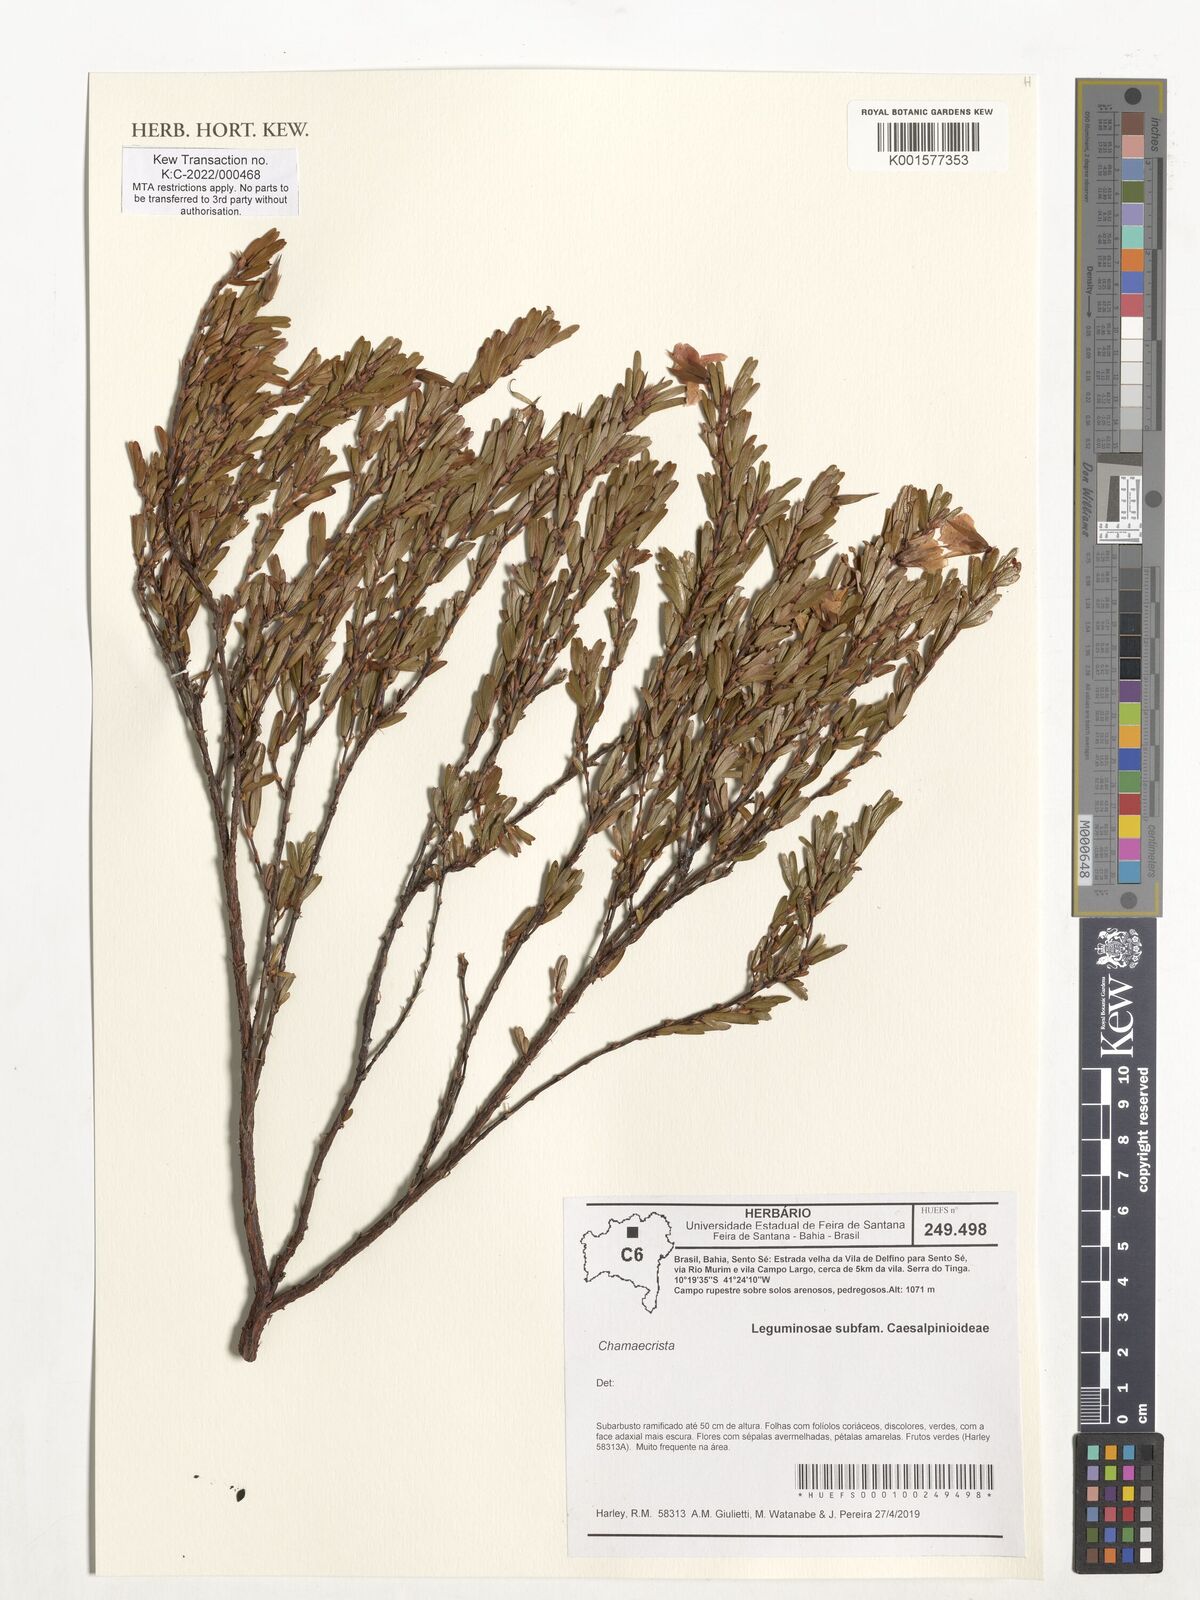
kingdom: Plantae
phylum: Tracheophyta
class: Magnoliopsida
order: Fabales
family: Fabaceae
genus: Chamaecrista
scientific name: Chamaecrista
